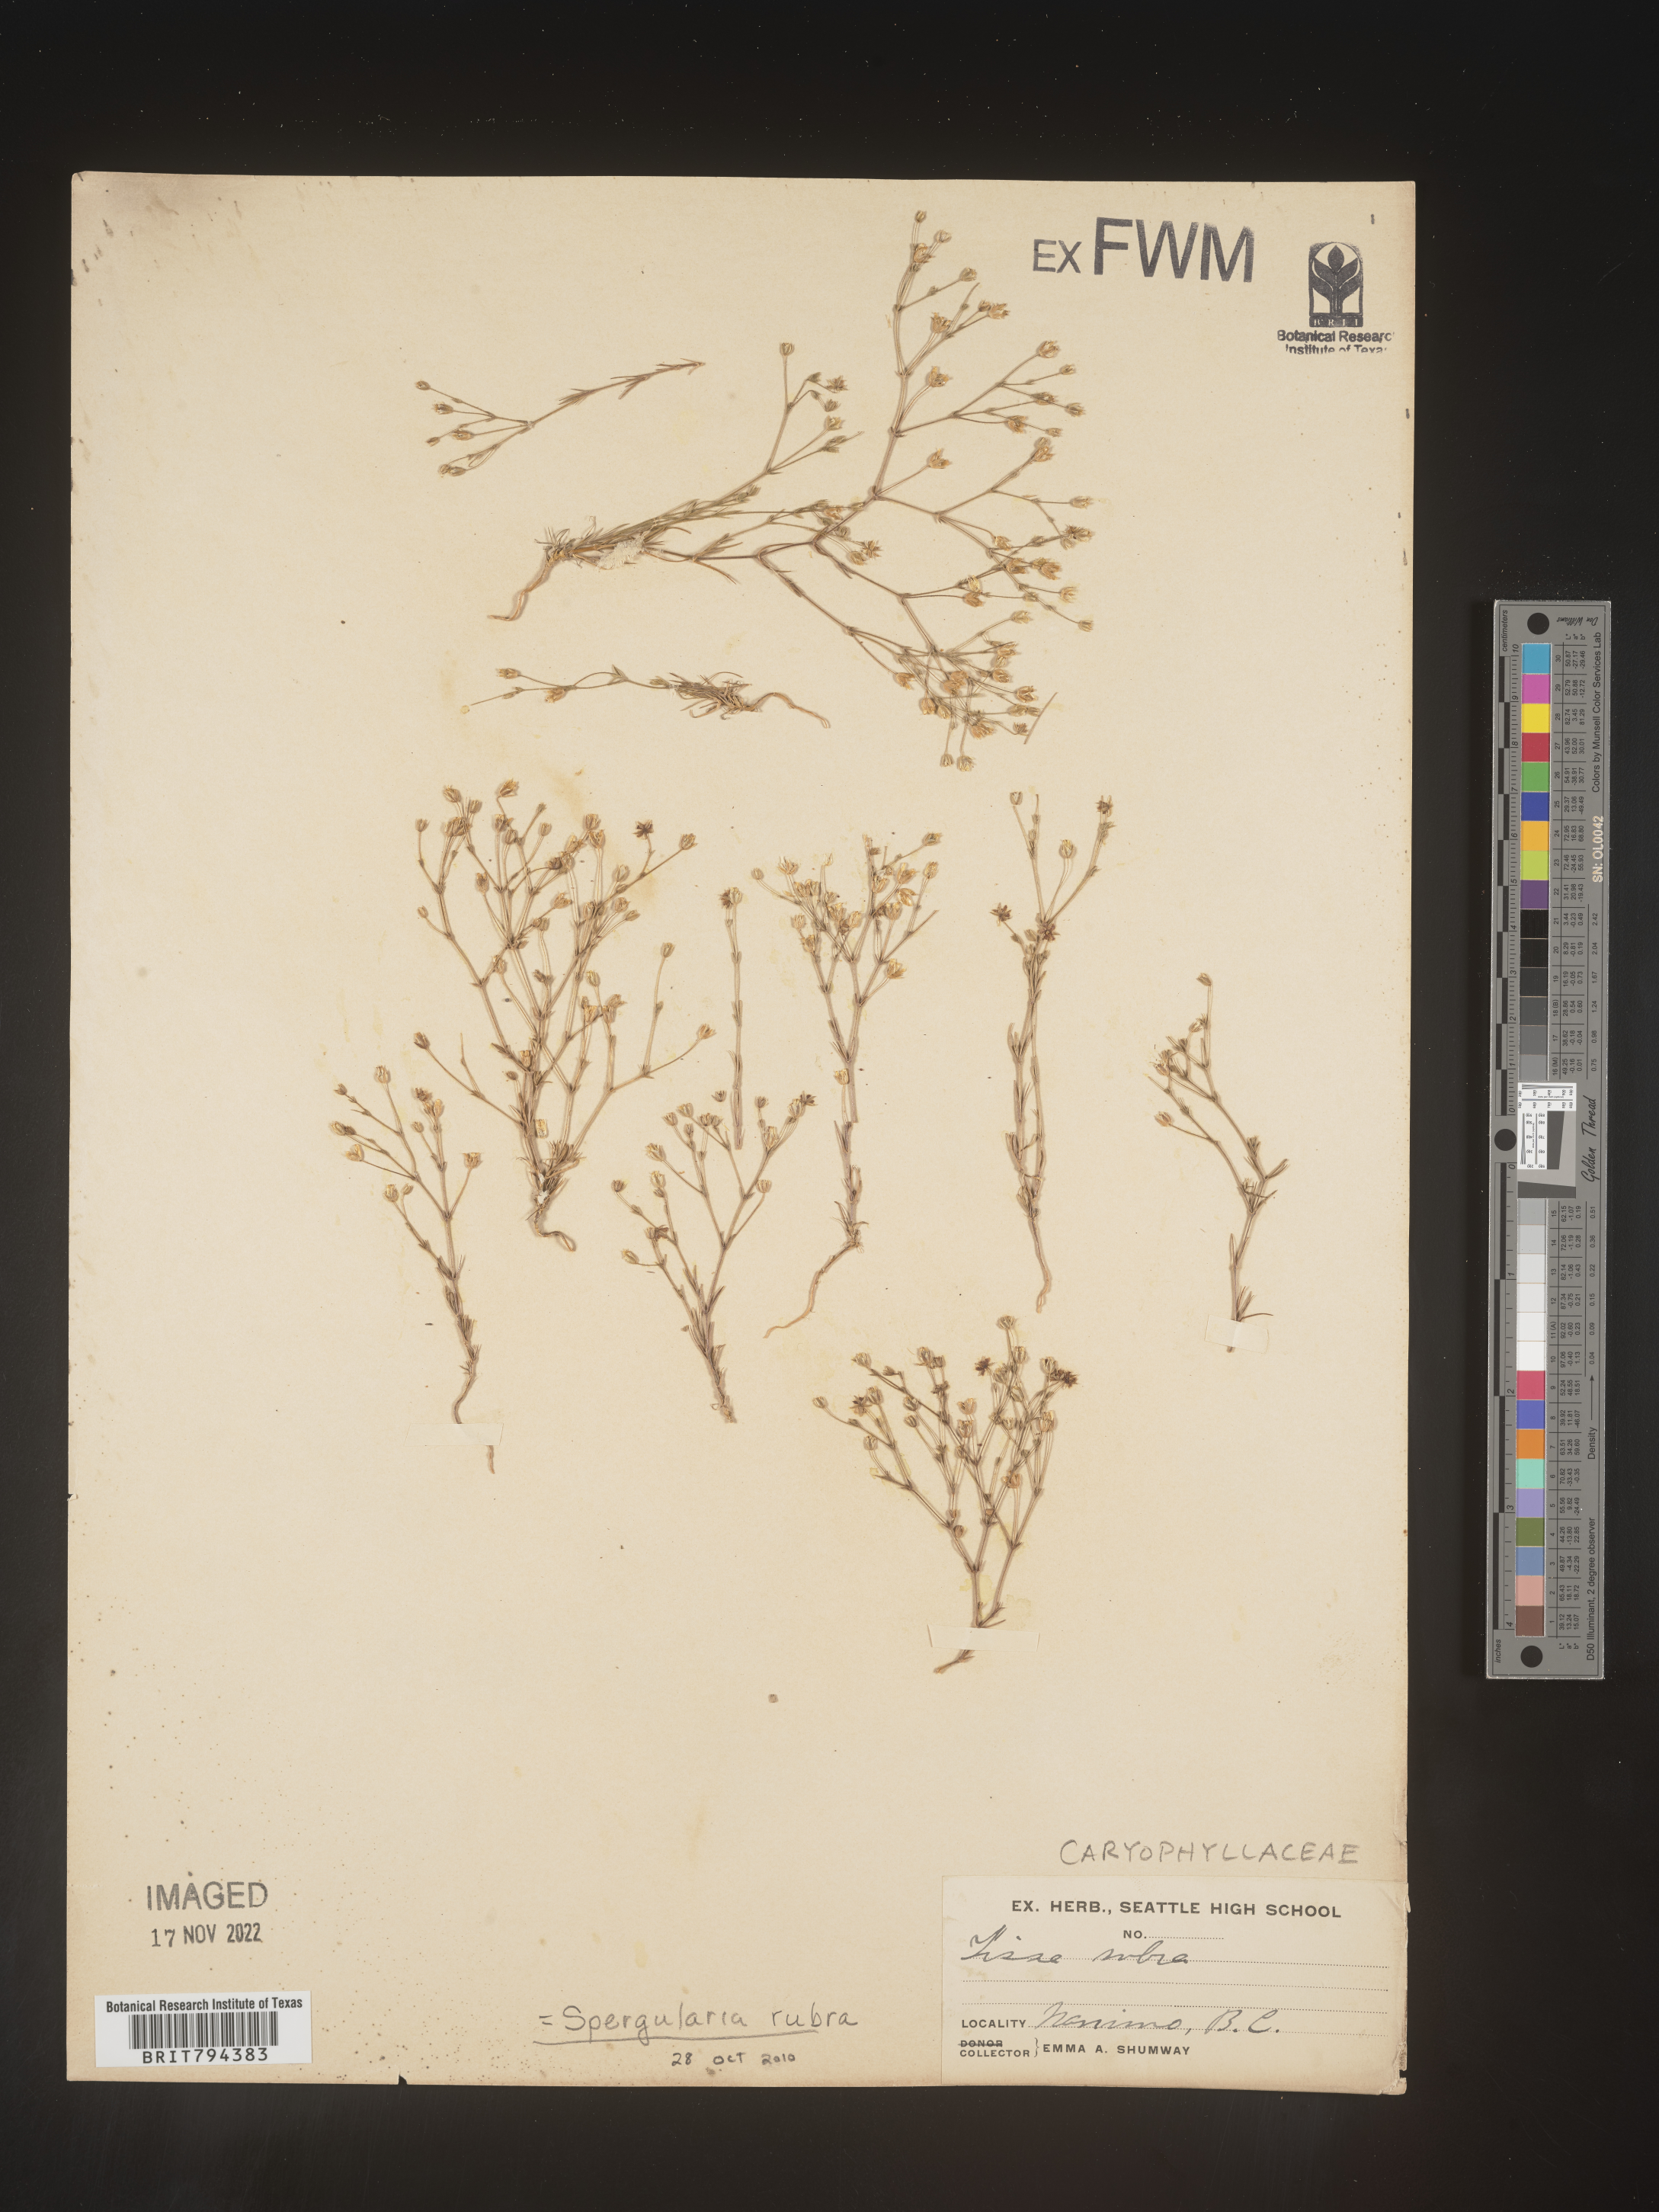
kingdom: Plantae
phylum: Tracheophyta
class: Magnoliopsida
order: Caryophyllales
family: Caryophyllaceae
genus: Spergularia
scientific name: Spergularia rubra
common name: Red sand-spurrey
